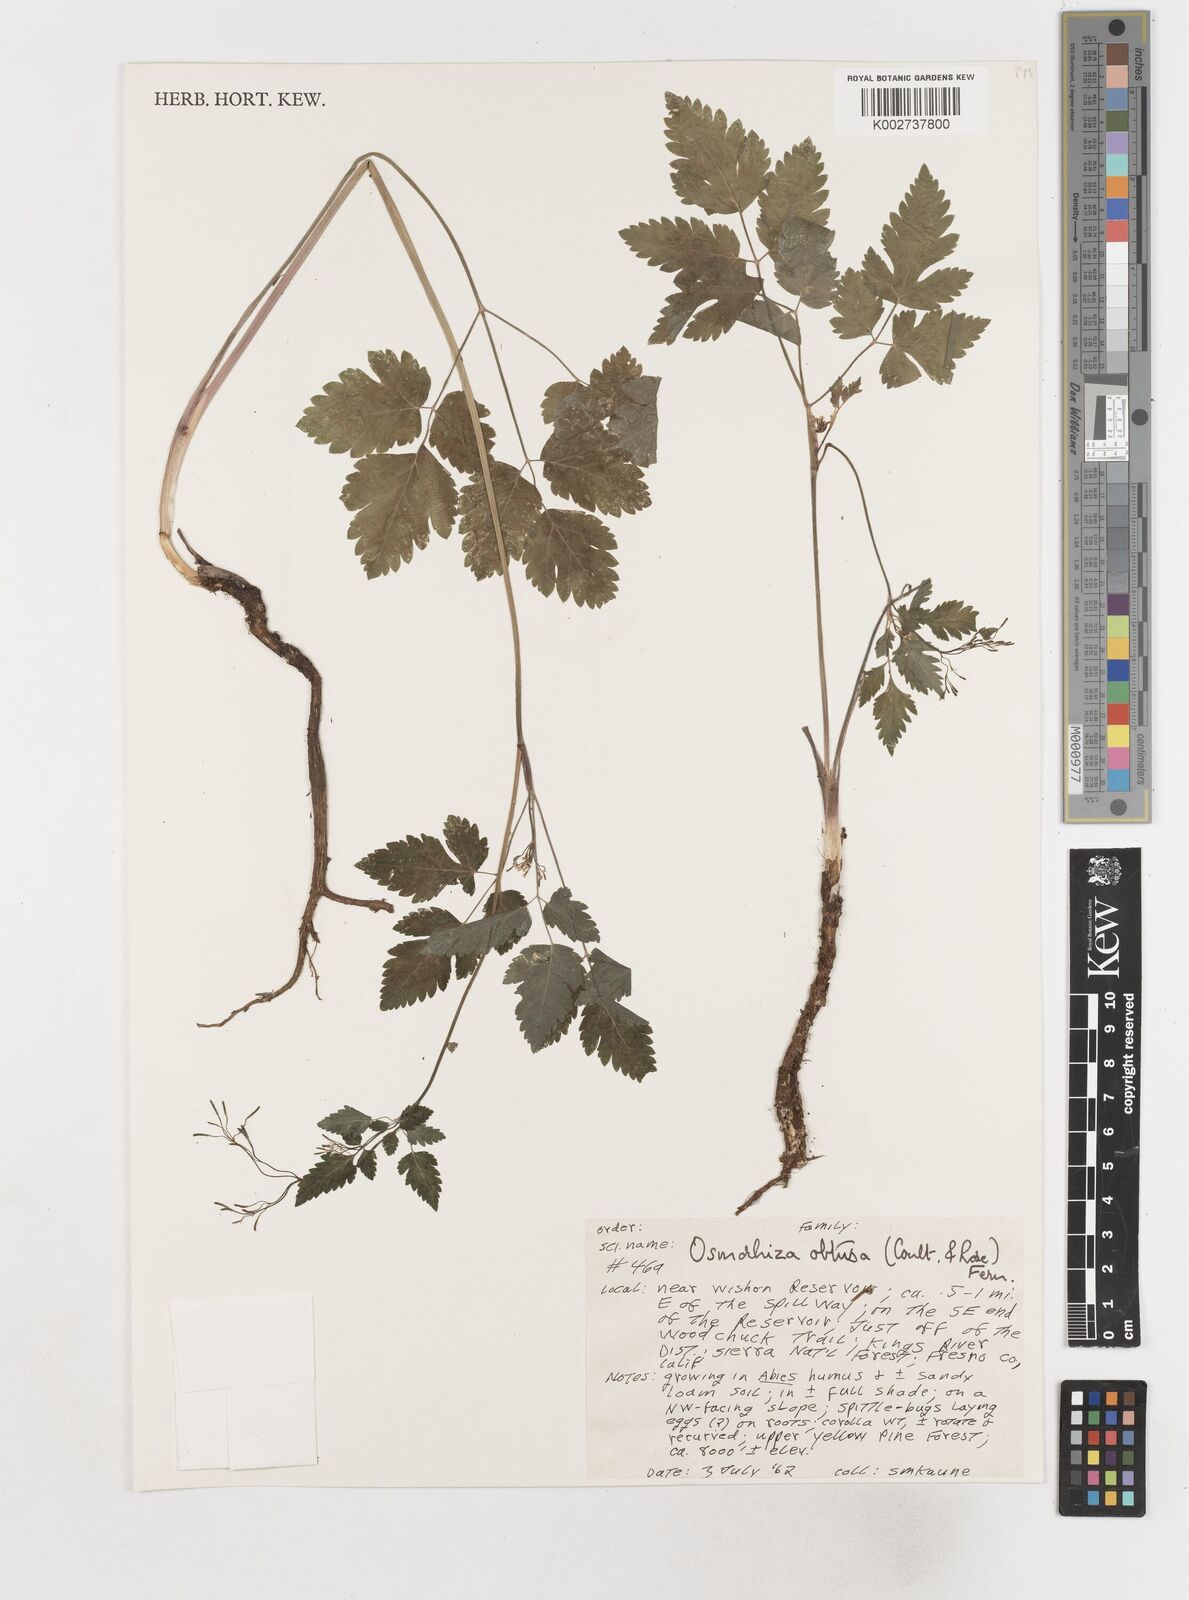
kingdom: Plantae
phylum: Tracheophyta
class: Magnoliopsida
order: Apiales
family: Apiaceae
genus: Osmorhiza
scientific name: Osmorhiza
